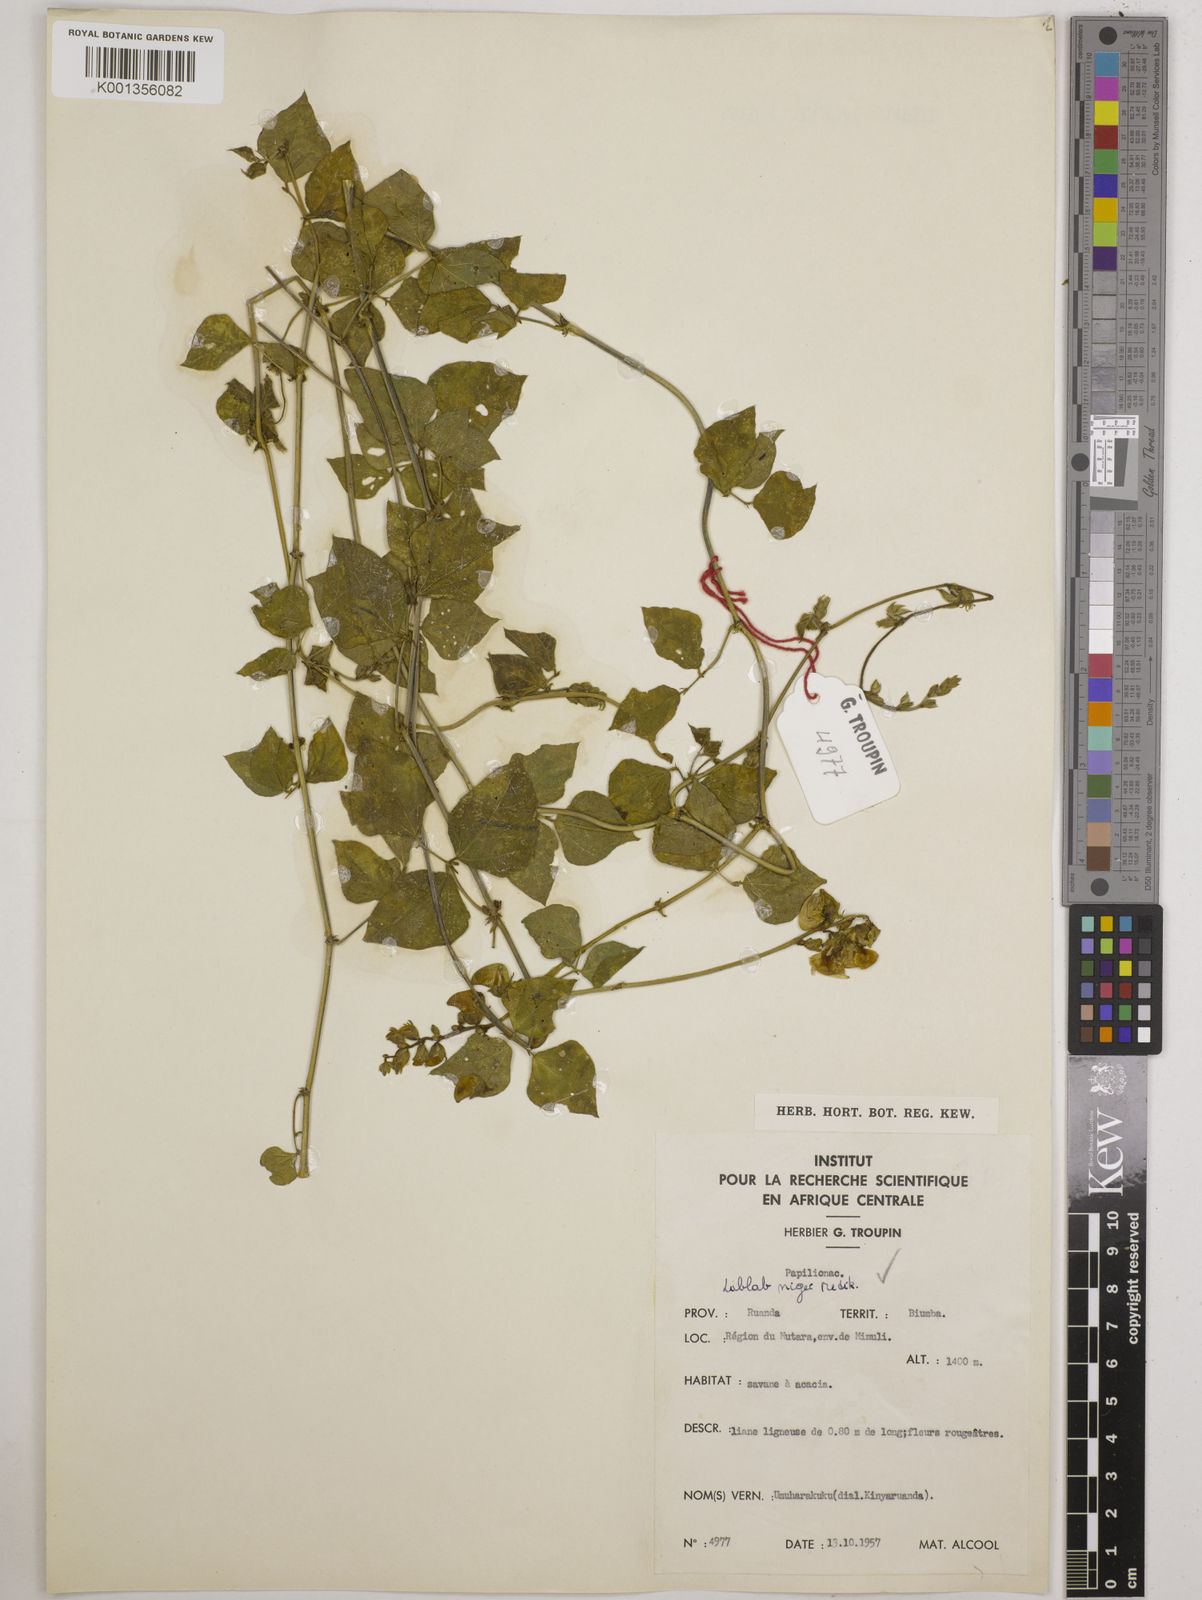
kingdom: Plantae
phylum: Tracheophyta
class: Magnoliopsida
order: Fabales
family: Fabaceae
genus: Lablab
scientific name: Lablab purpureus
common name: Lablab-bean
